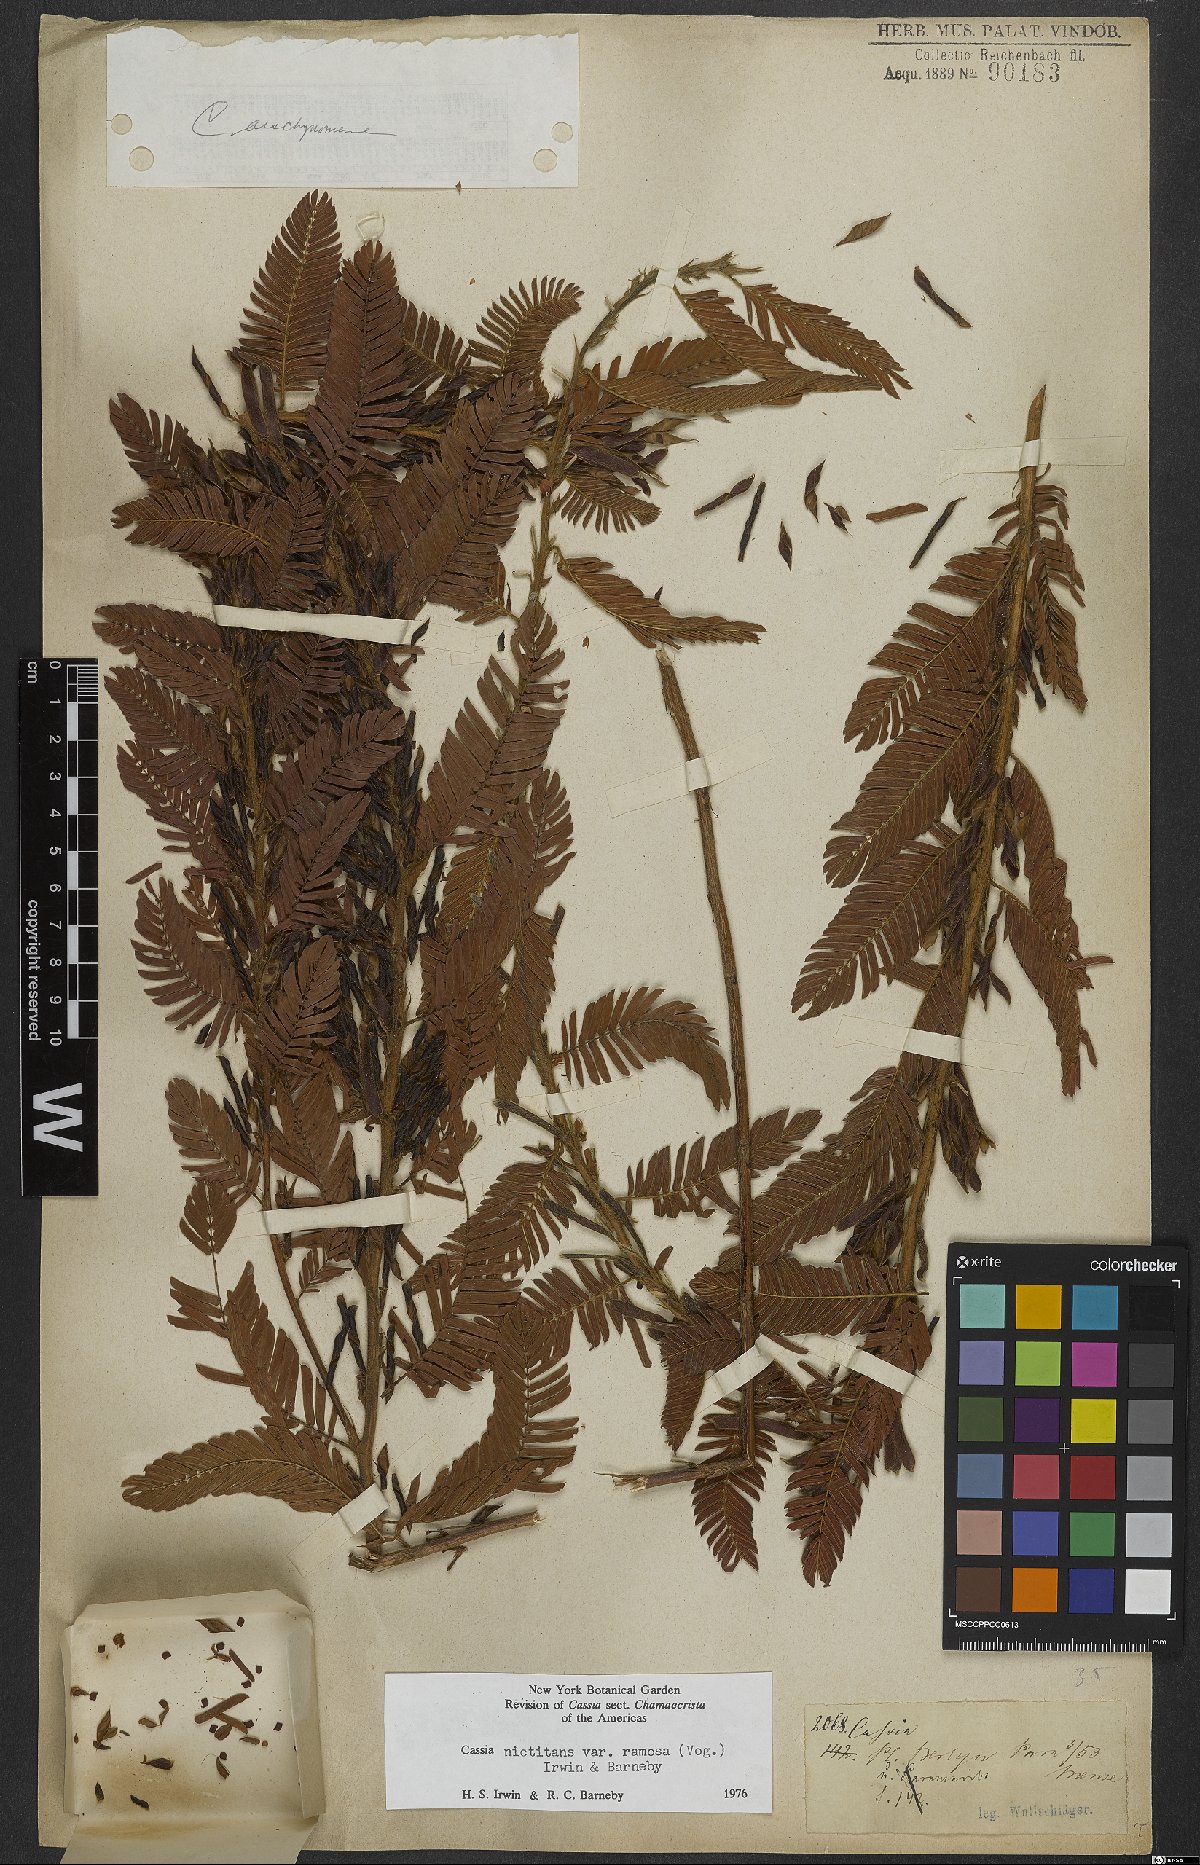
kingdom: Plantae
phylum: Tracheophyta
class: Magnoliopsida
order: Fabales
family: Fabaceae
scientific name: Fabaceae
